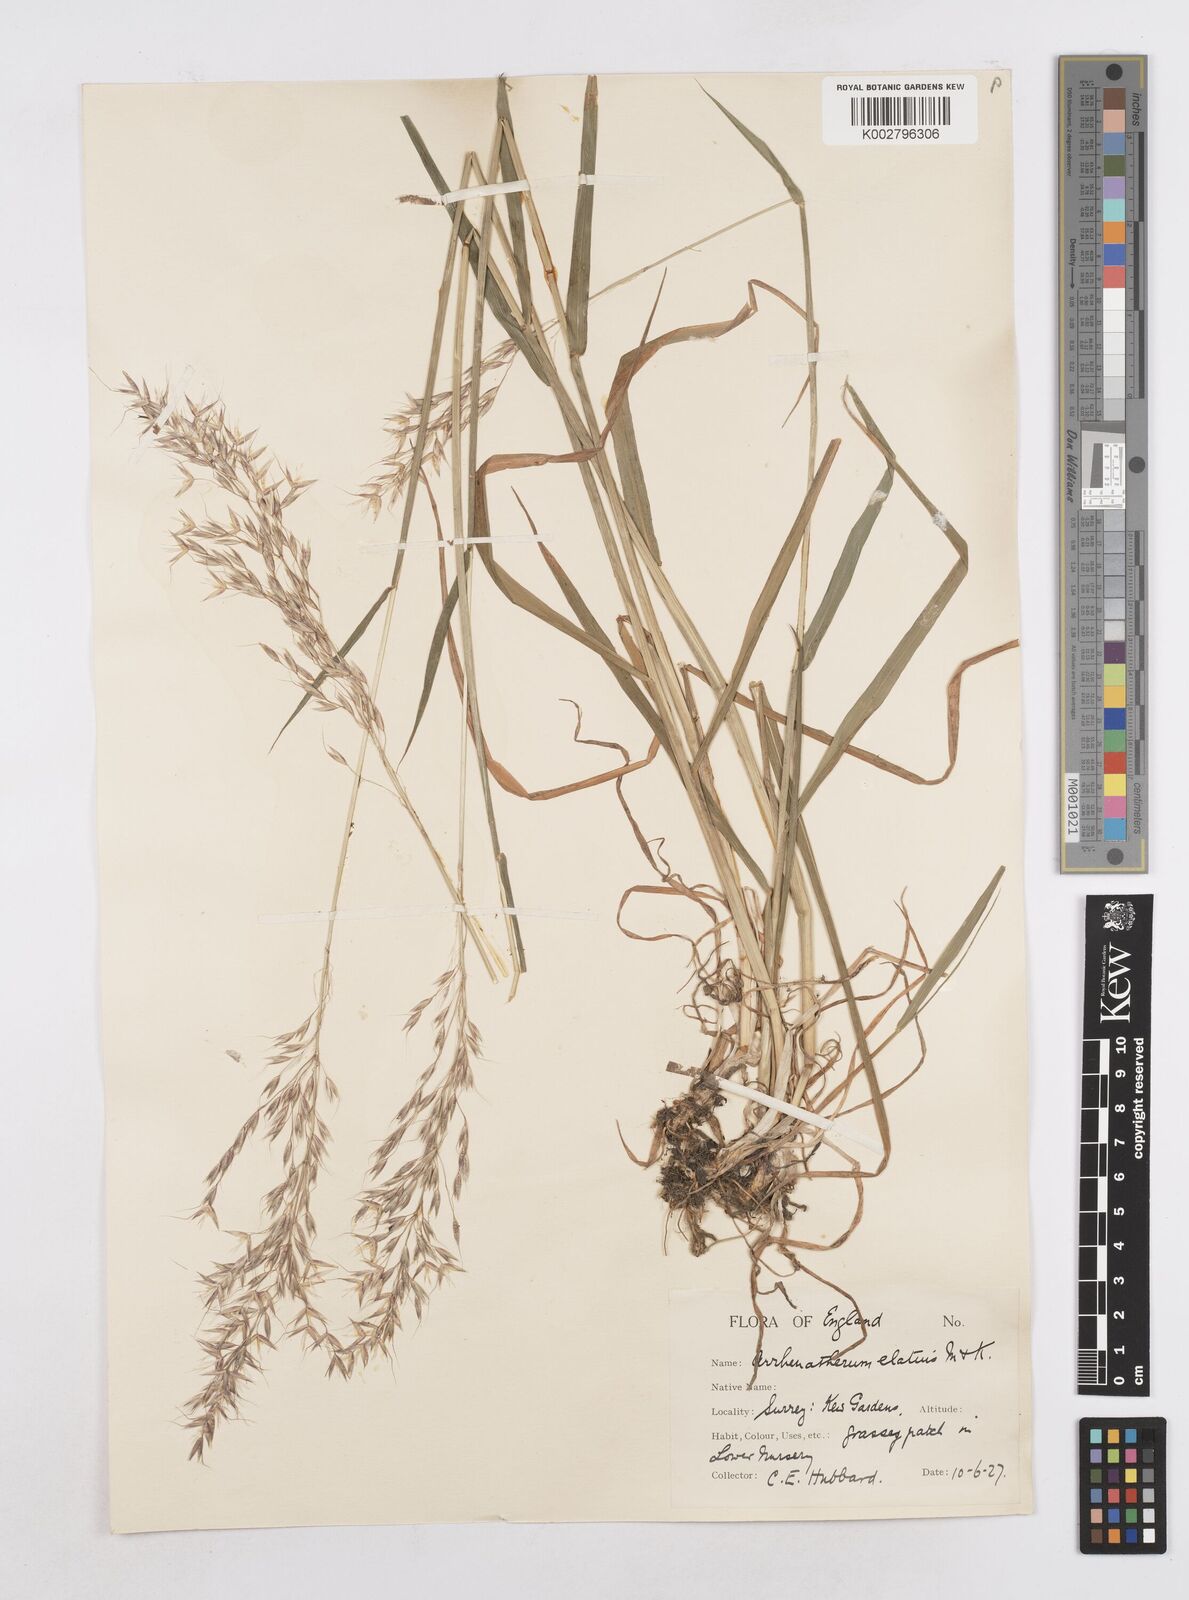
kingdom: Plantae
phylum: Tracheophyta
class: Liliopsida
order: Poales
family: Poaceae
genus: Arrhenatherum
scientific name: Arrhenatherum elatius
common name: Tall oatgrass
